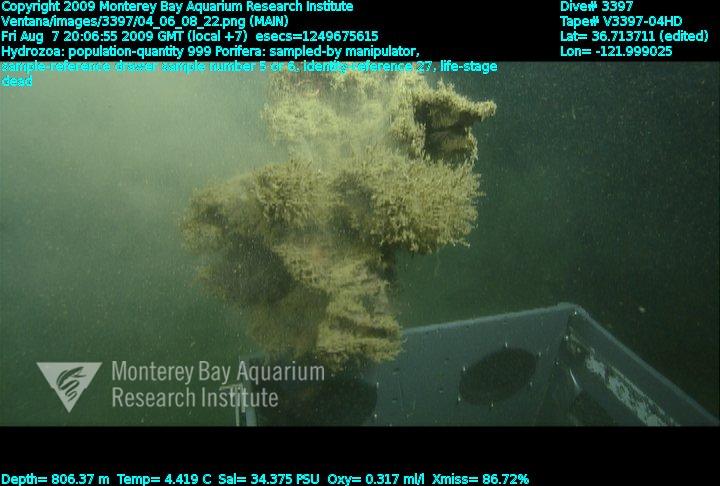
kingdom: Animalia
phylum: Porifera
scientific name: Porifera
